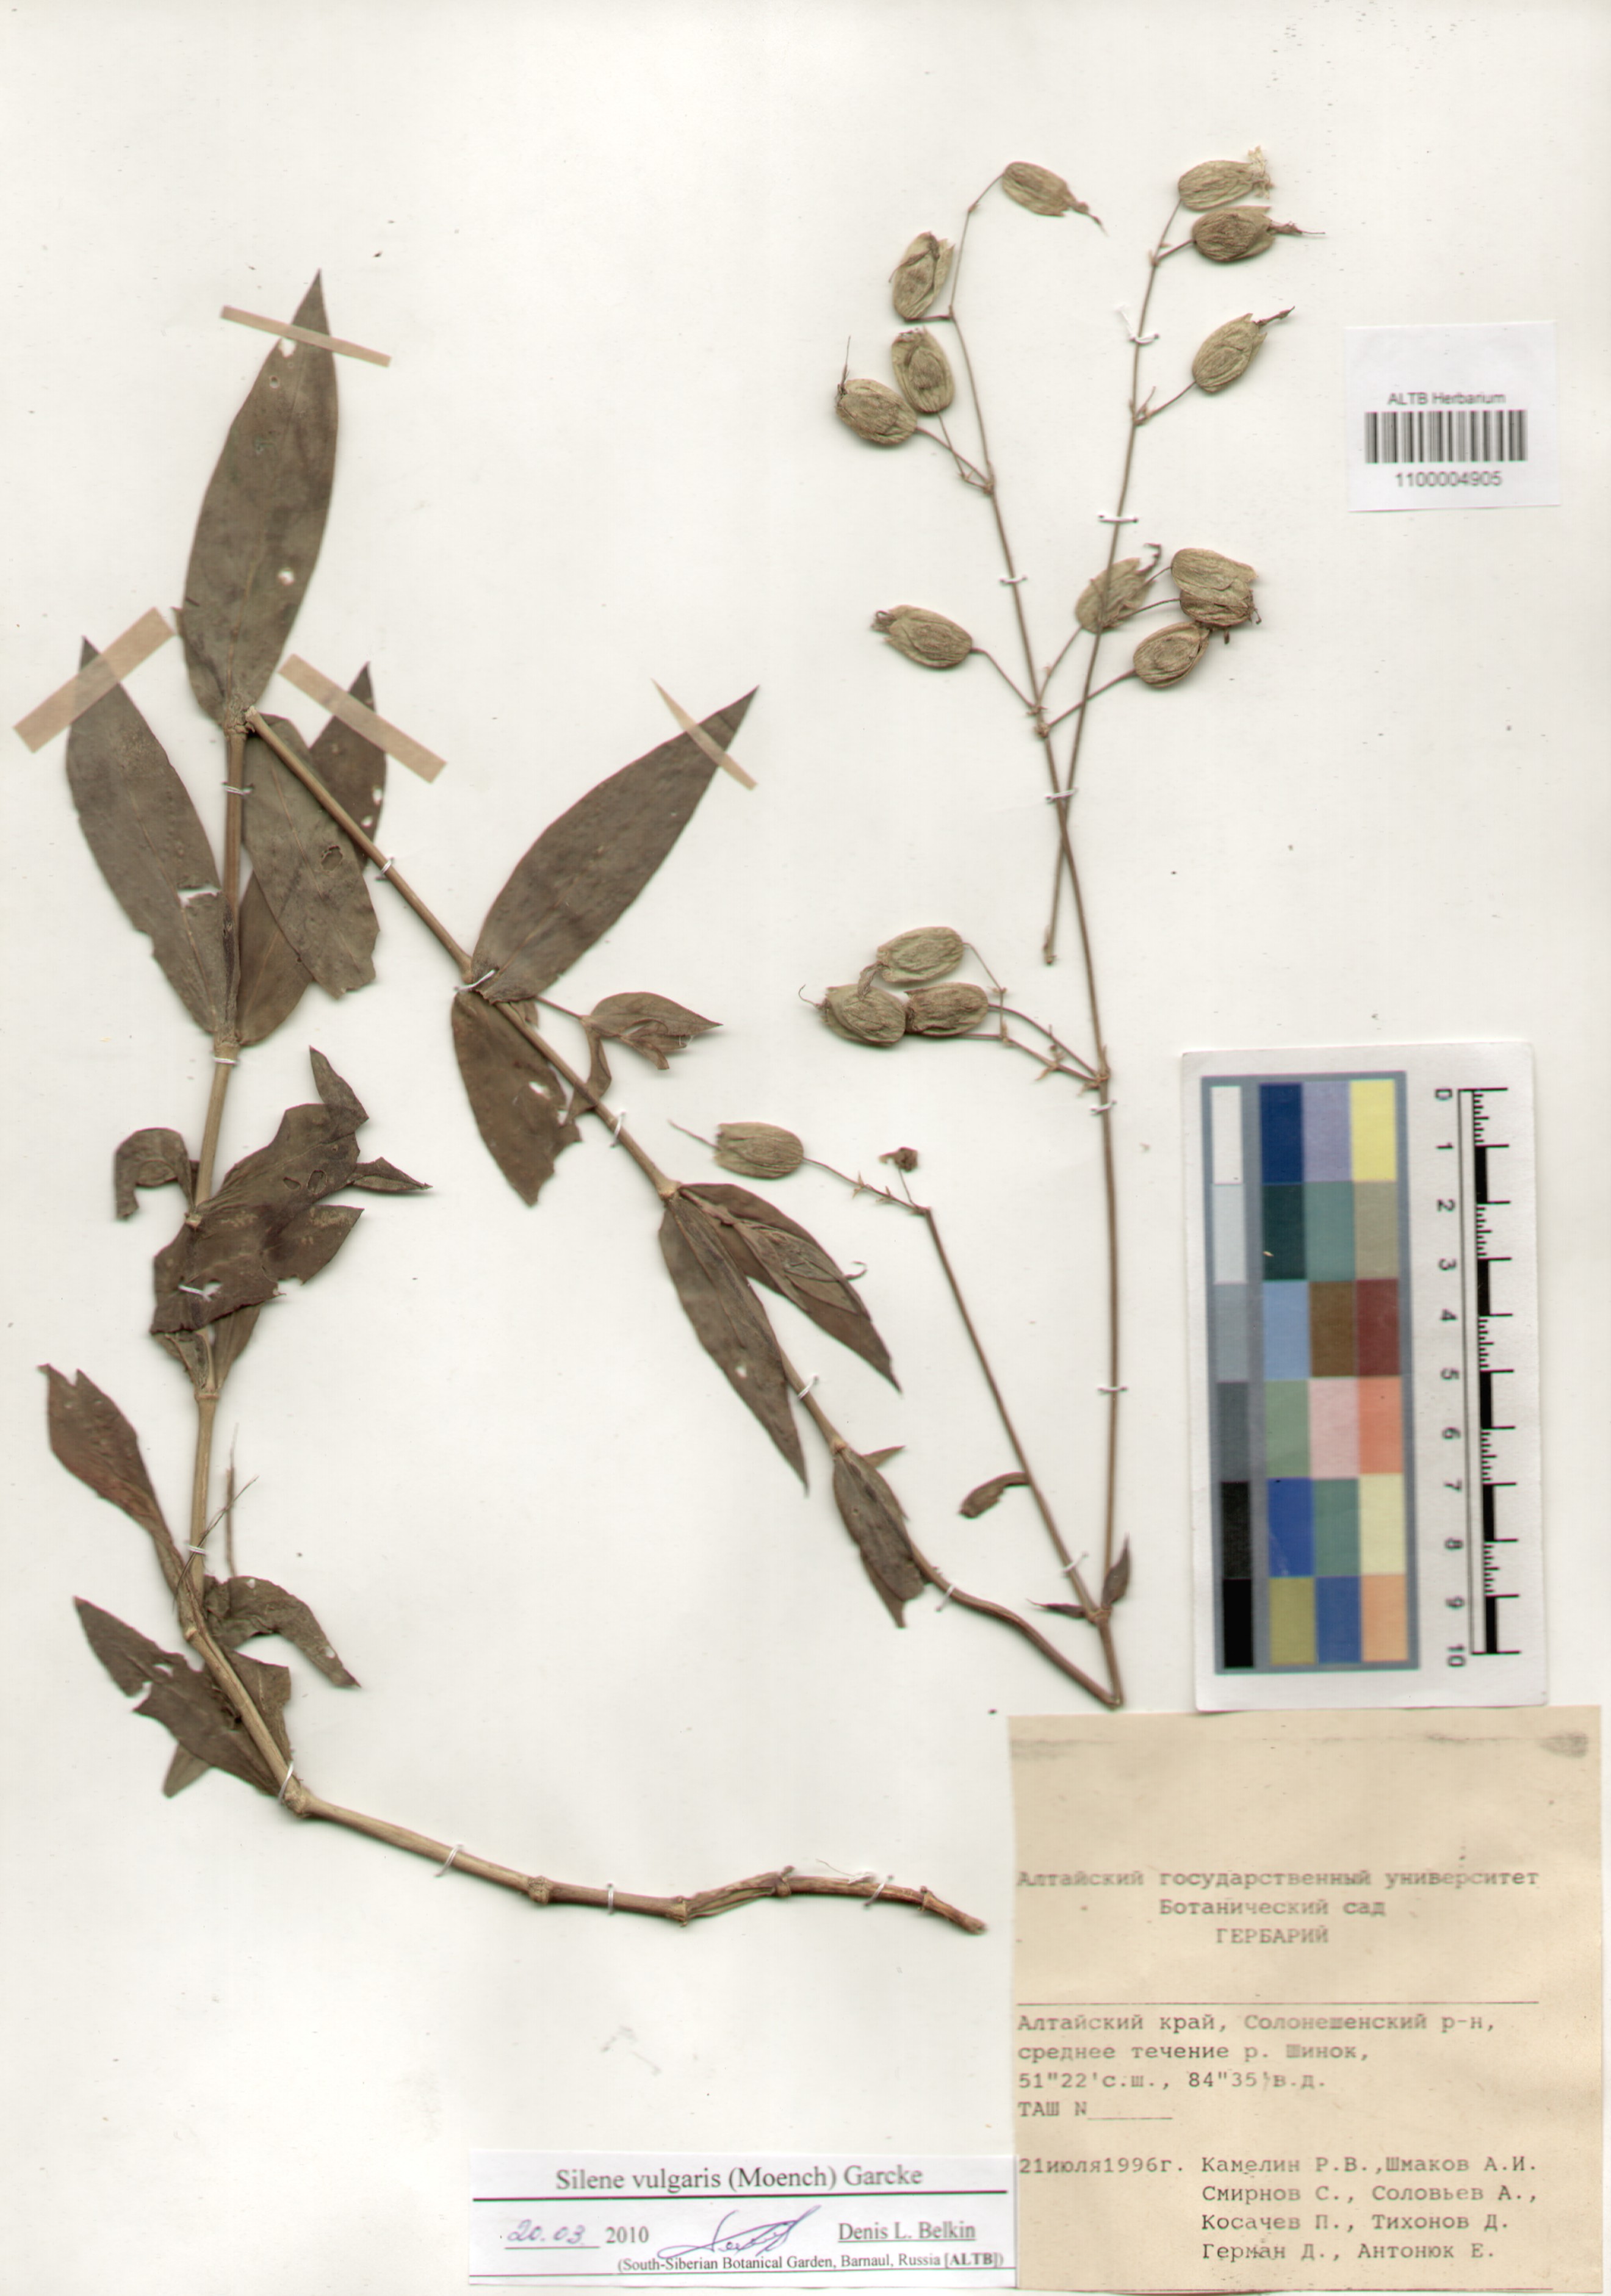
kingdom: Plantae
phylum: Tracheophyta
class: Magnoliopsida
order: Caryophyllales
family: Caryophyllaceae
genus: Silene
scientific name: Silene vulgaris
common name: Bladder campion
